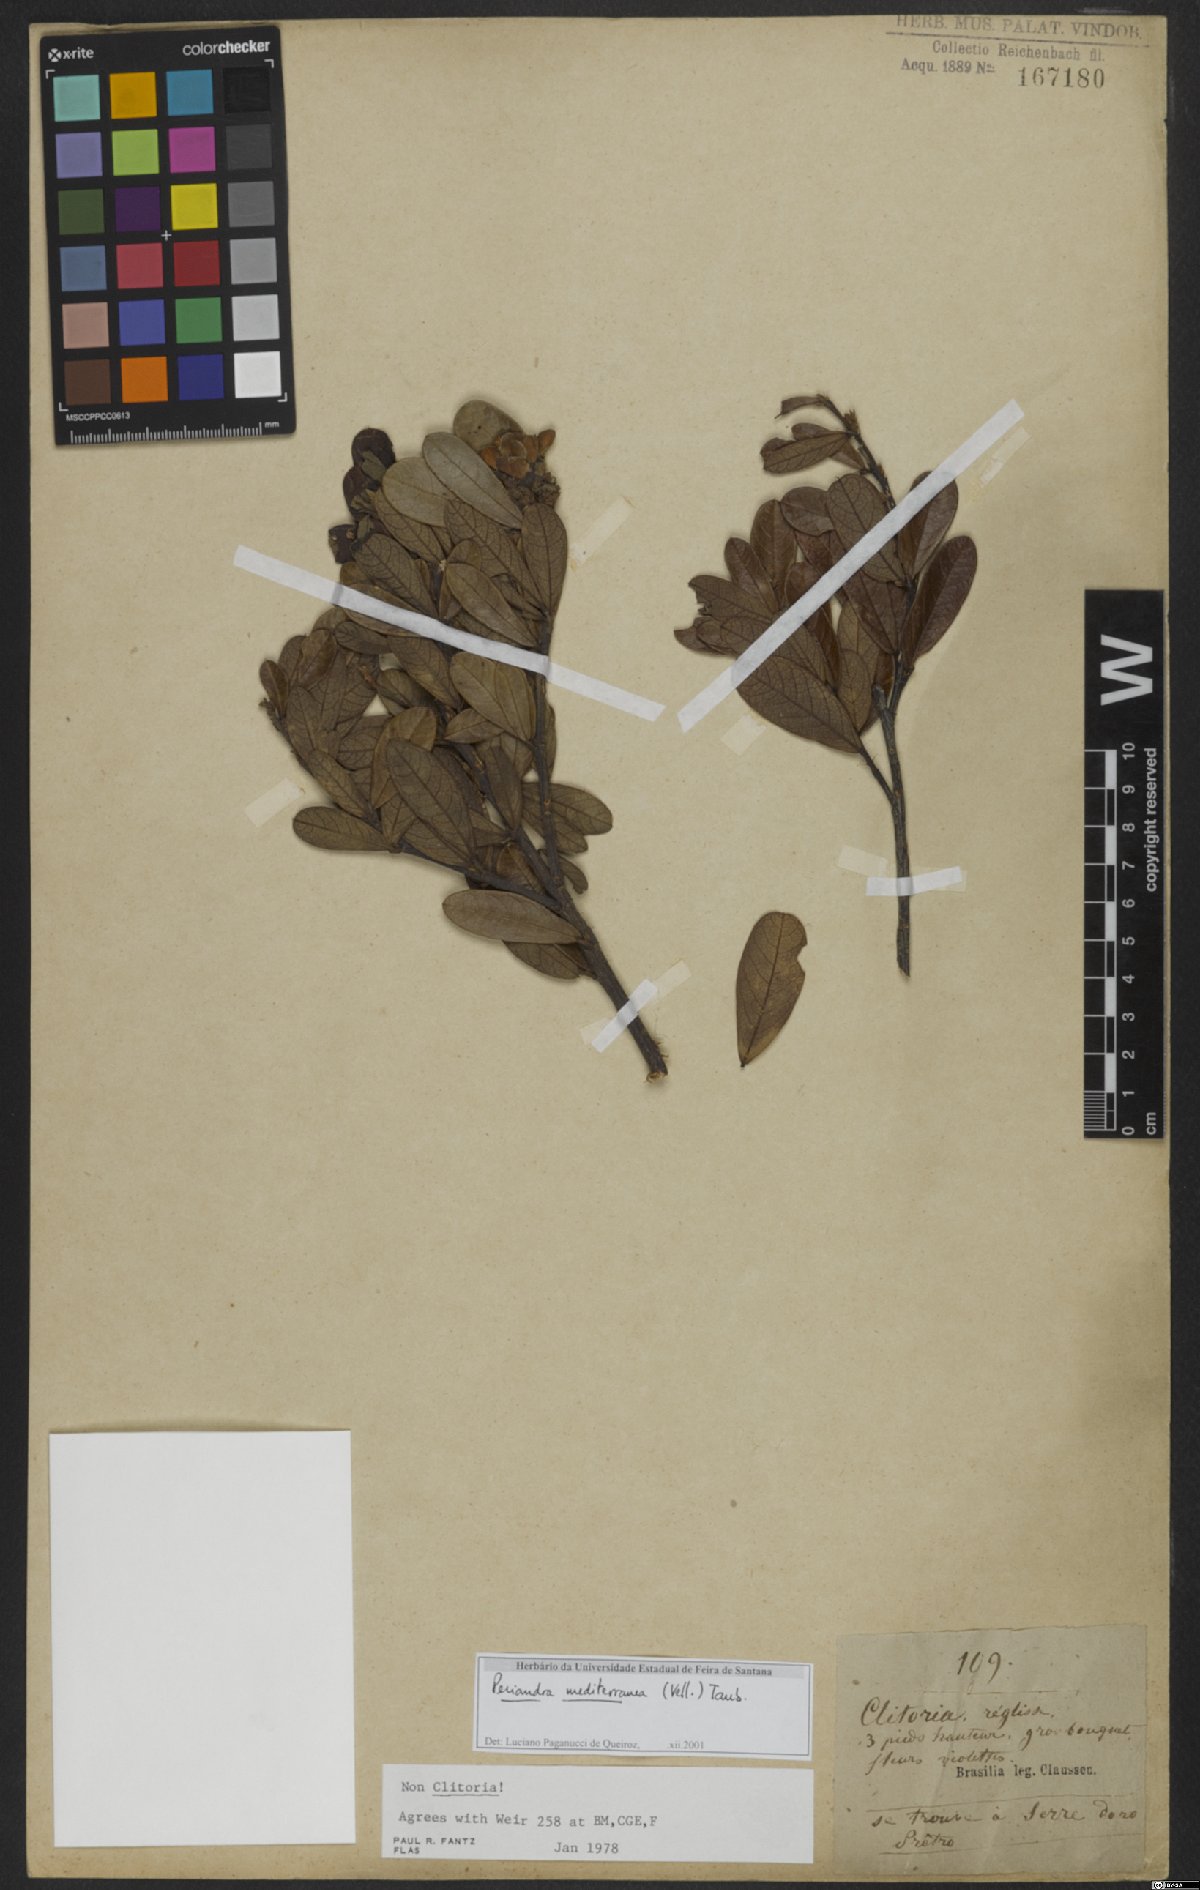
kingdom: Plantae
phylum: Tracheophyta
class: Magnoliopsida
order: Fabales
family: Fabaceae
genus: Periandra
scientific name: Periandra mediterranea
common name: Brazilian licorice
